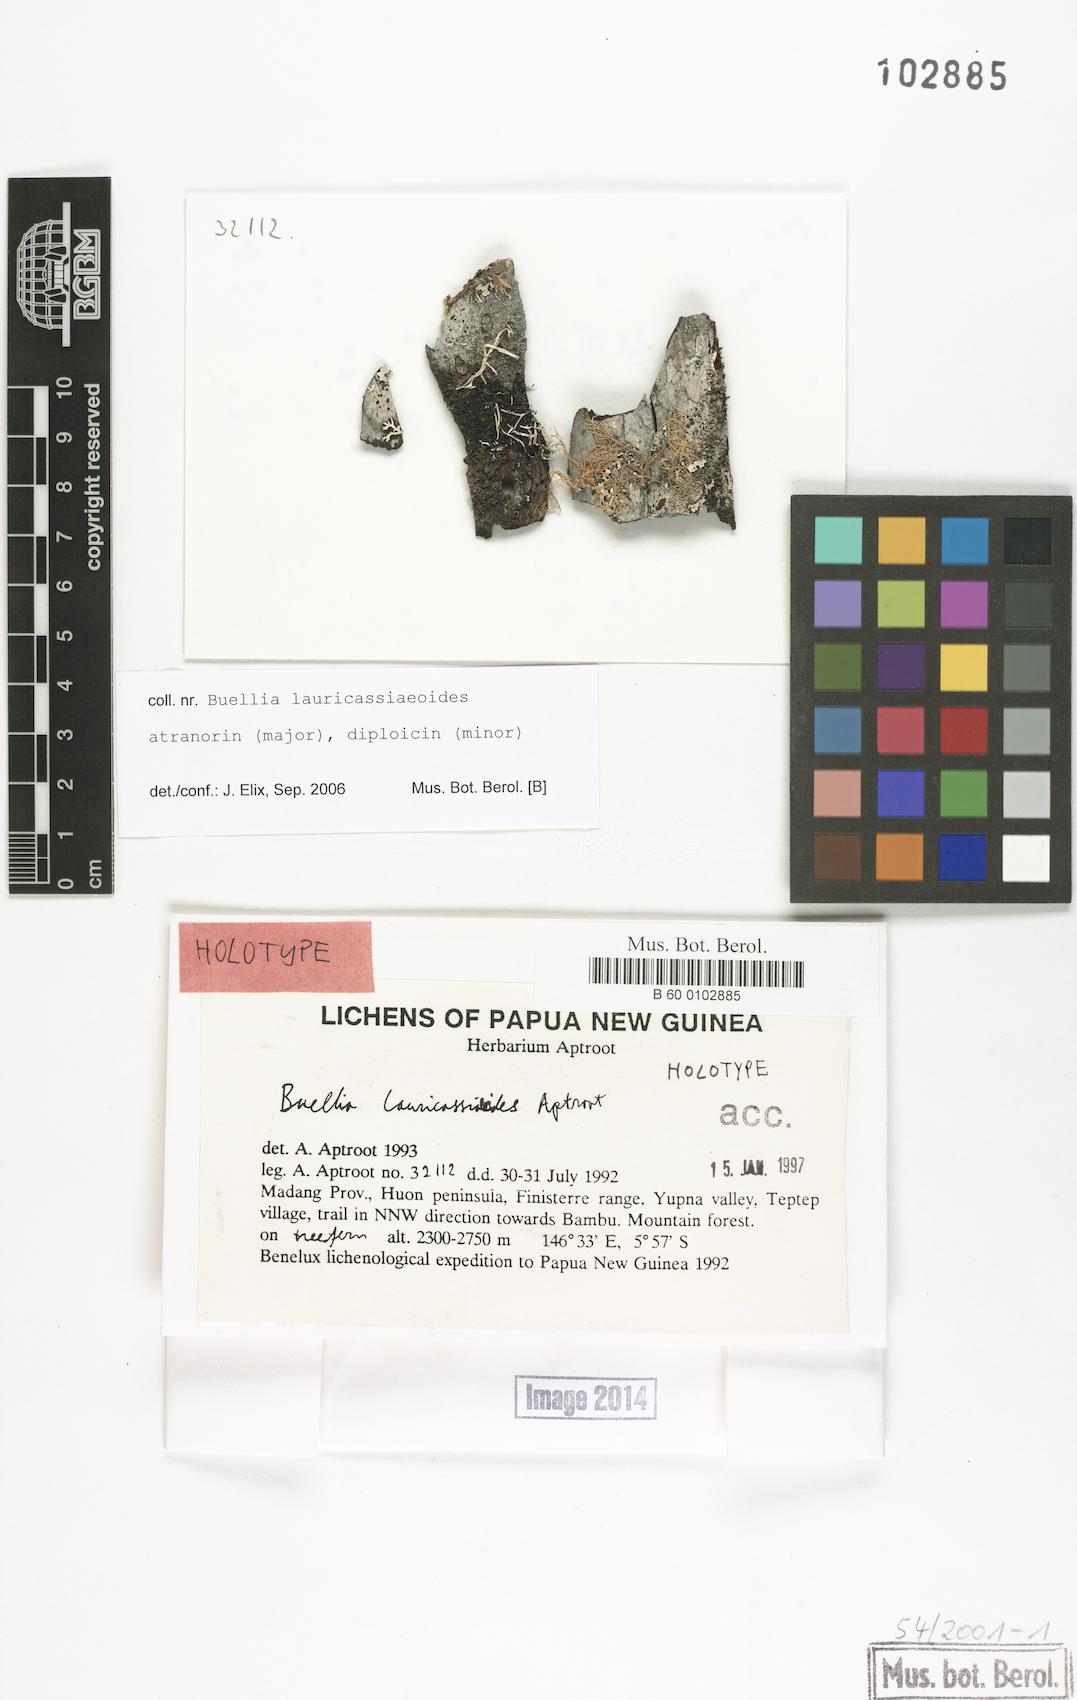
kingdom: Fungi
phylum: Ascomycota
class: Lecanoromycetes
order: Caliciales
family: Physciaceae
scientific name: Physciaceae
